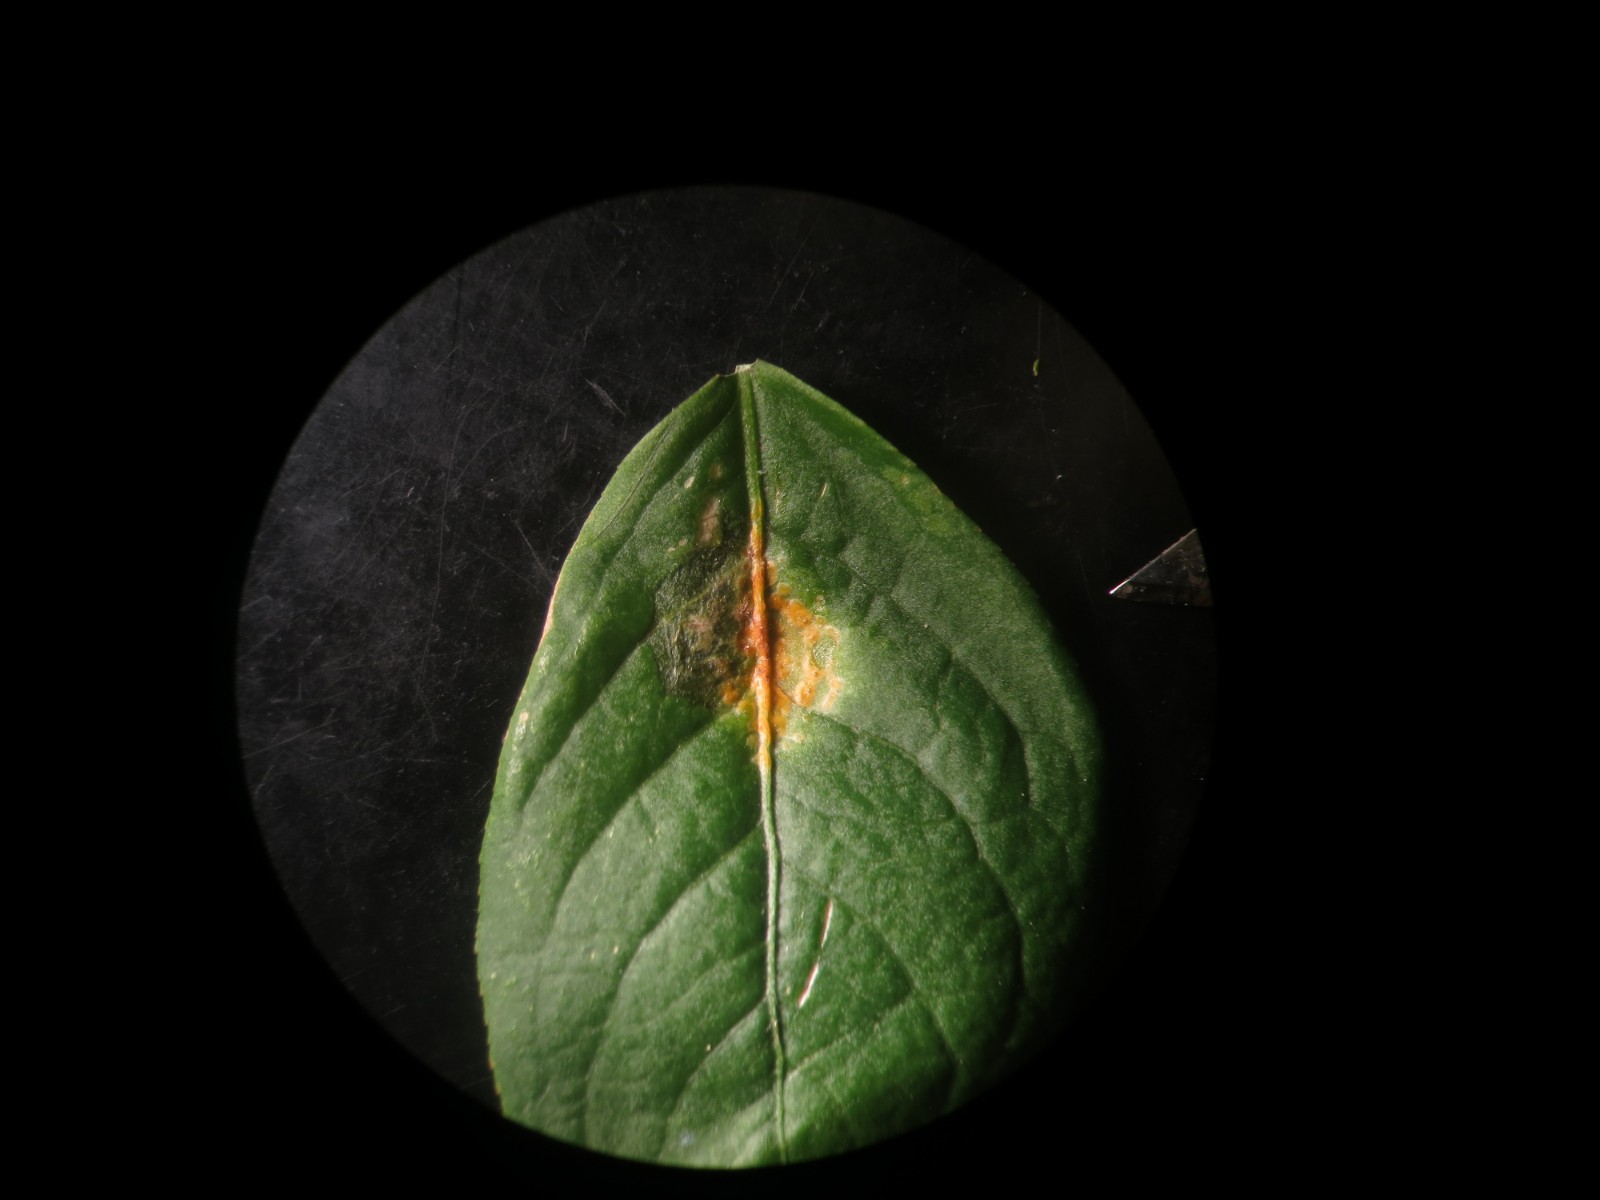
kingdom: Fungi
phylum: Basidiomycota
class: Pucciniomycetes
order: Pucciniales
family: Melampsoraceae
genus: Melampsora
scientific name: Melampsora epitea
